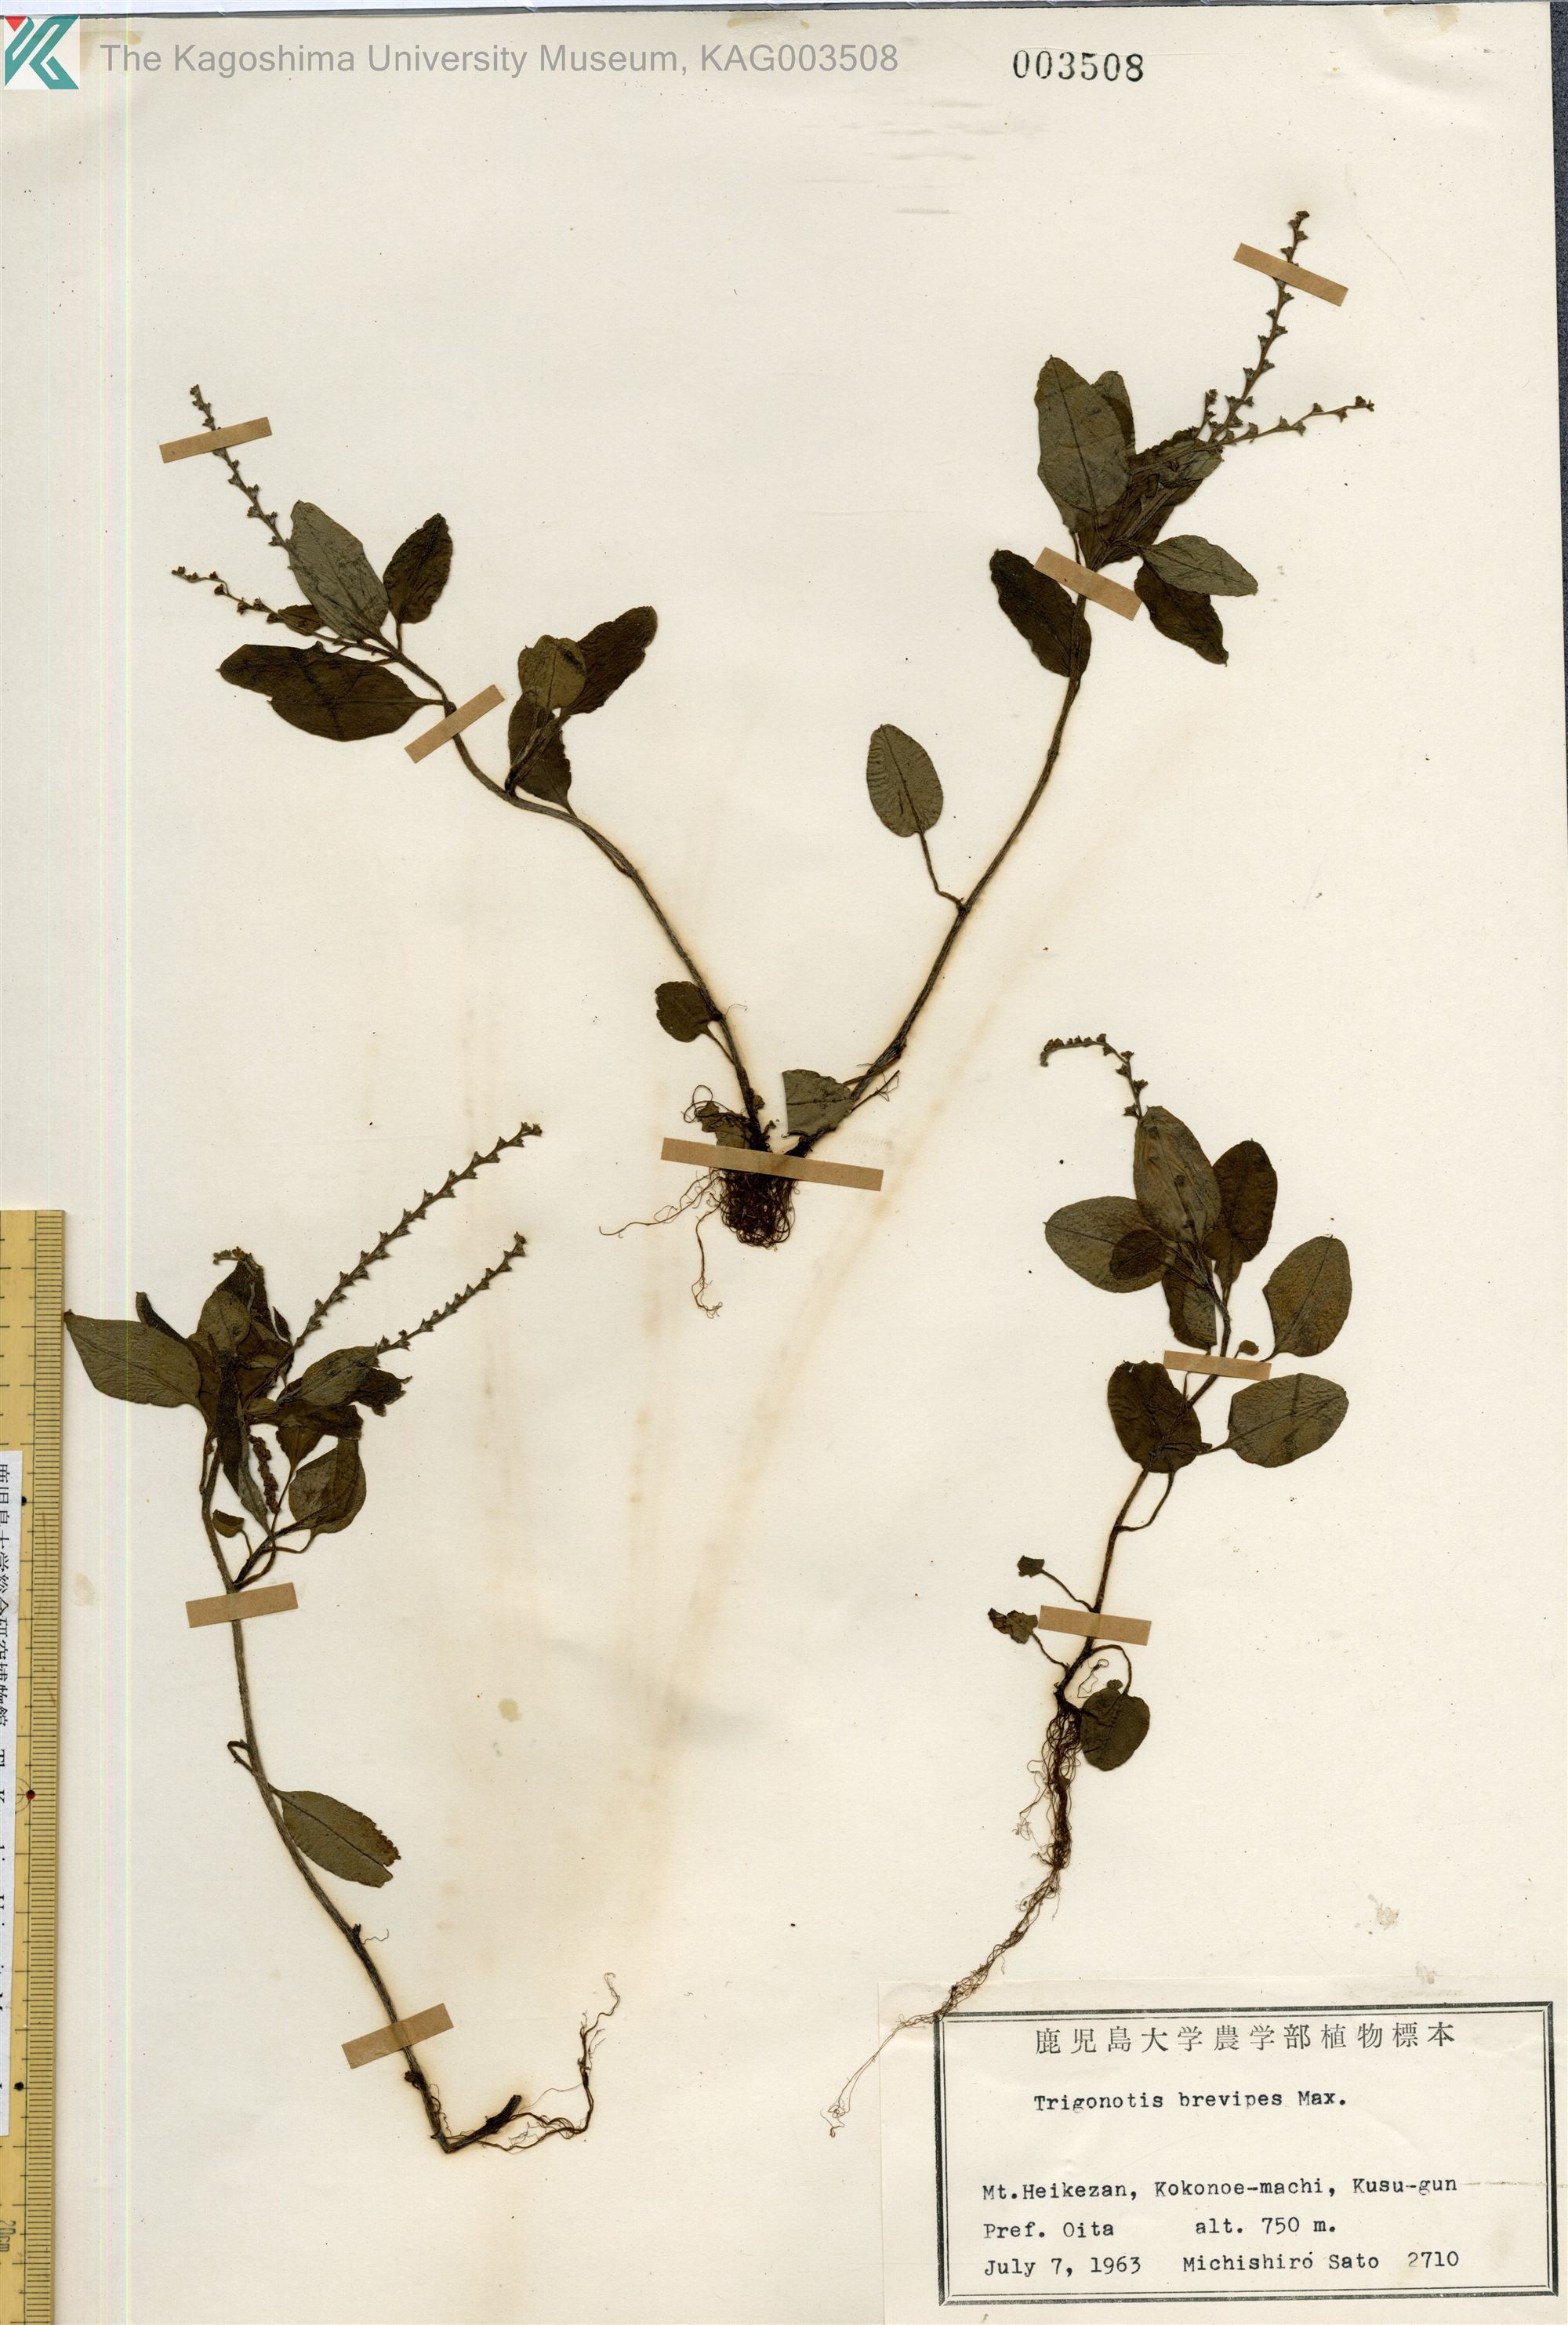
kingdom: Plantae
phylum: Tracheophyta
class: Magnoliopsida
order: Boraginales
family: Boraginaceae
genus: Trigonotis
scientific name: Trigonotis brevipes
